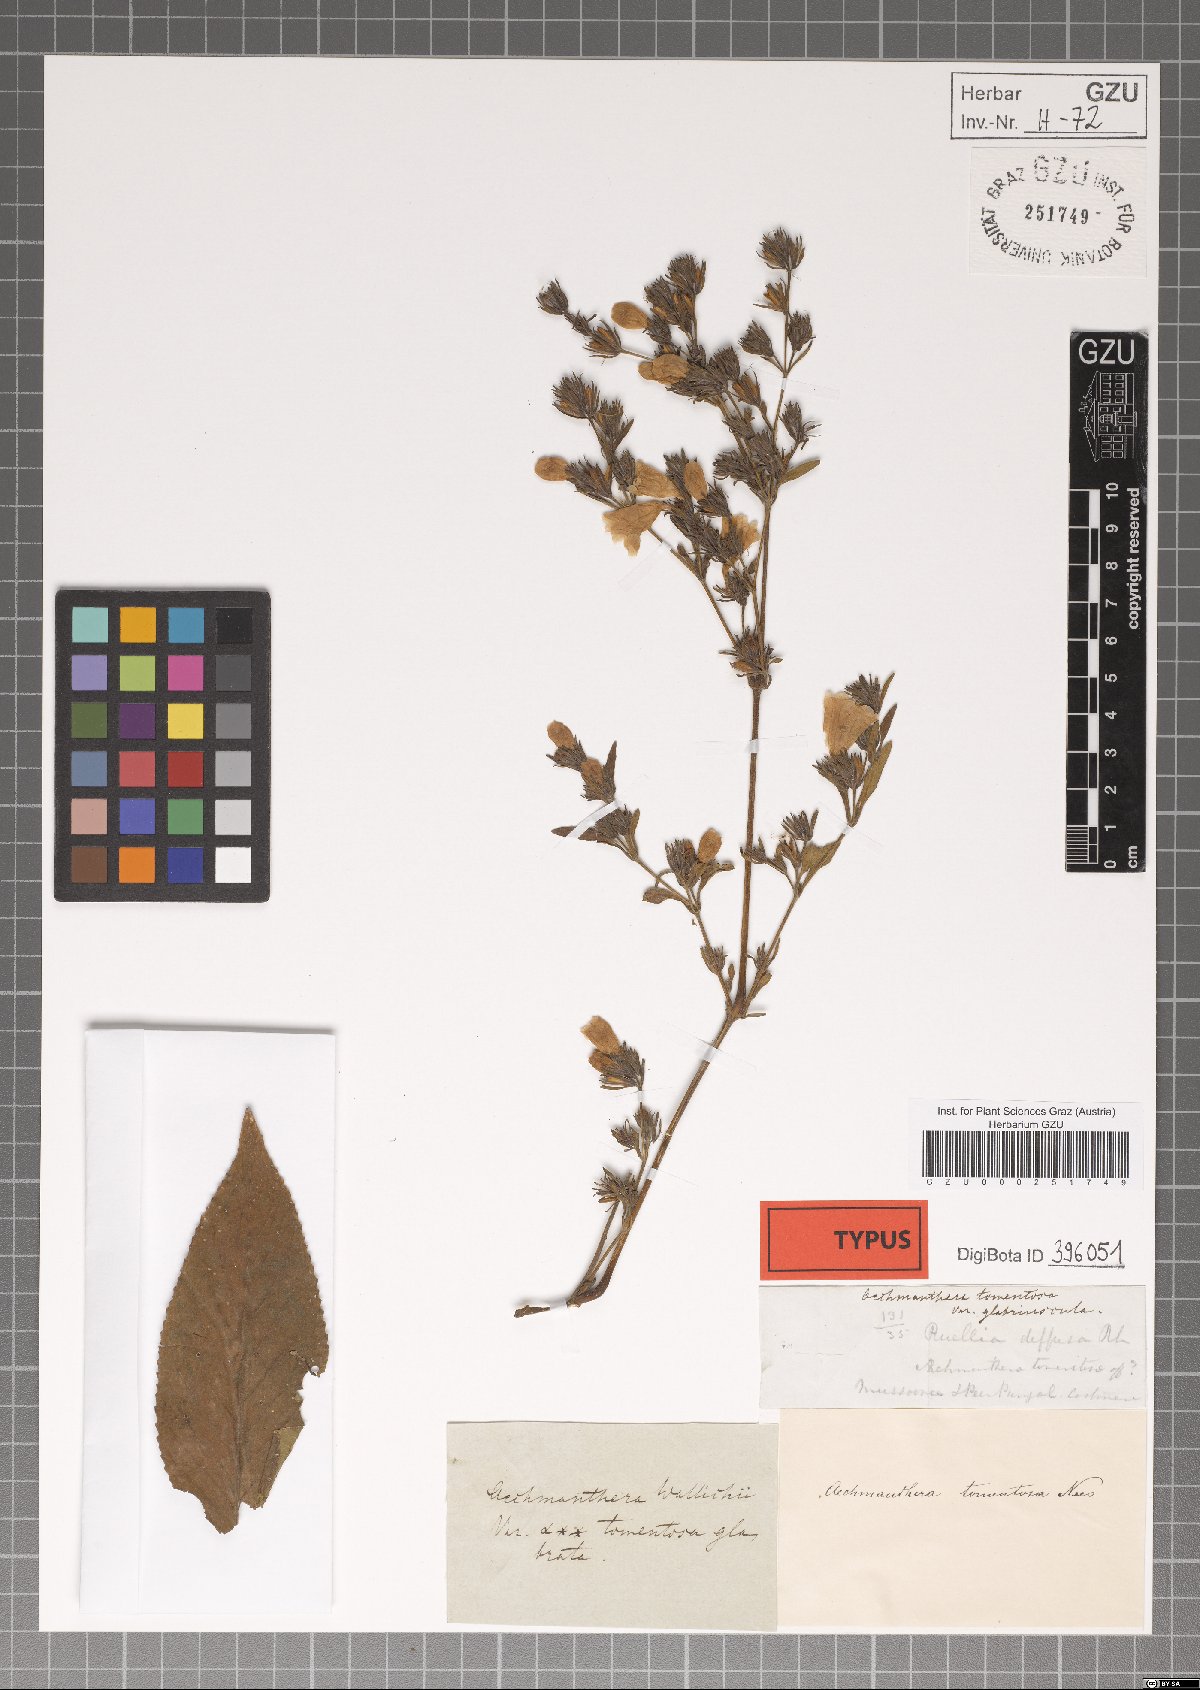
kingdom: Plantae
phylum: Tracheophyta
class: Magnoliopsida
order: Lamiales
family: Acanthaceae
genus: Strobilanthes
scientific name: Strobilanthes tomentosa
